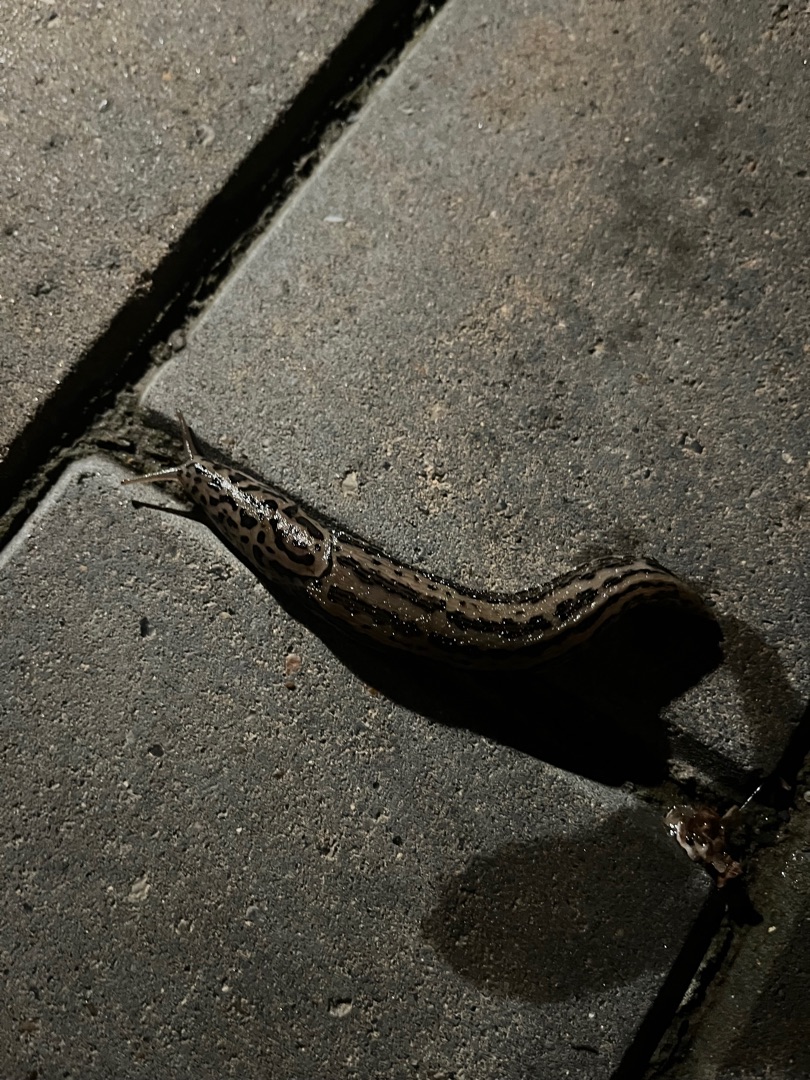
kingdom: Animalia
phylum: Mollusca
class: Gastropoda
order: Stylommatophora
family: Limacidae
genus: Limax
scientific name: Limax maximus
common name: Pantersnegl
